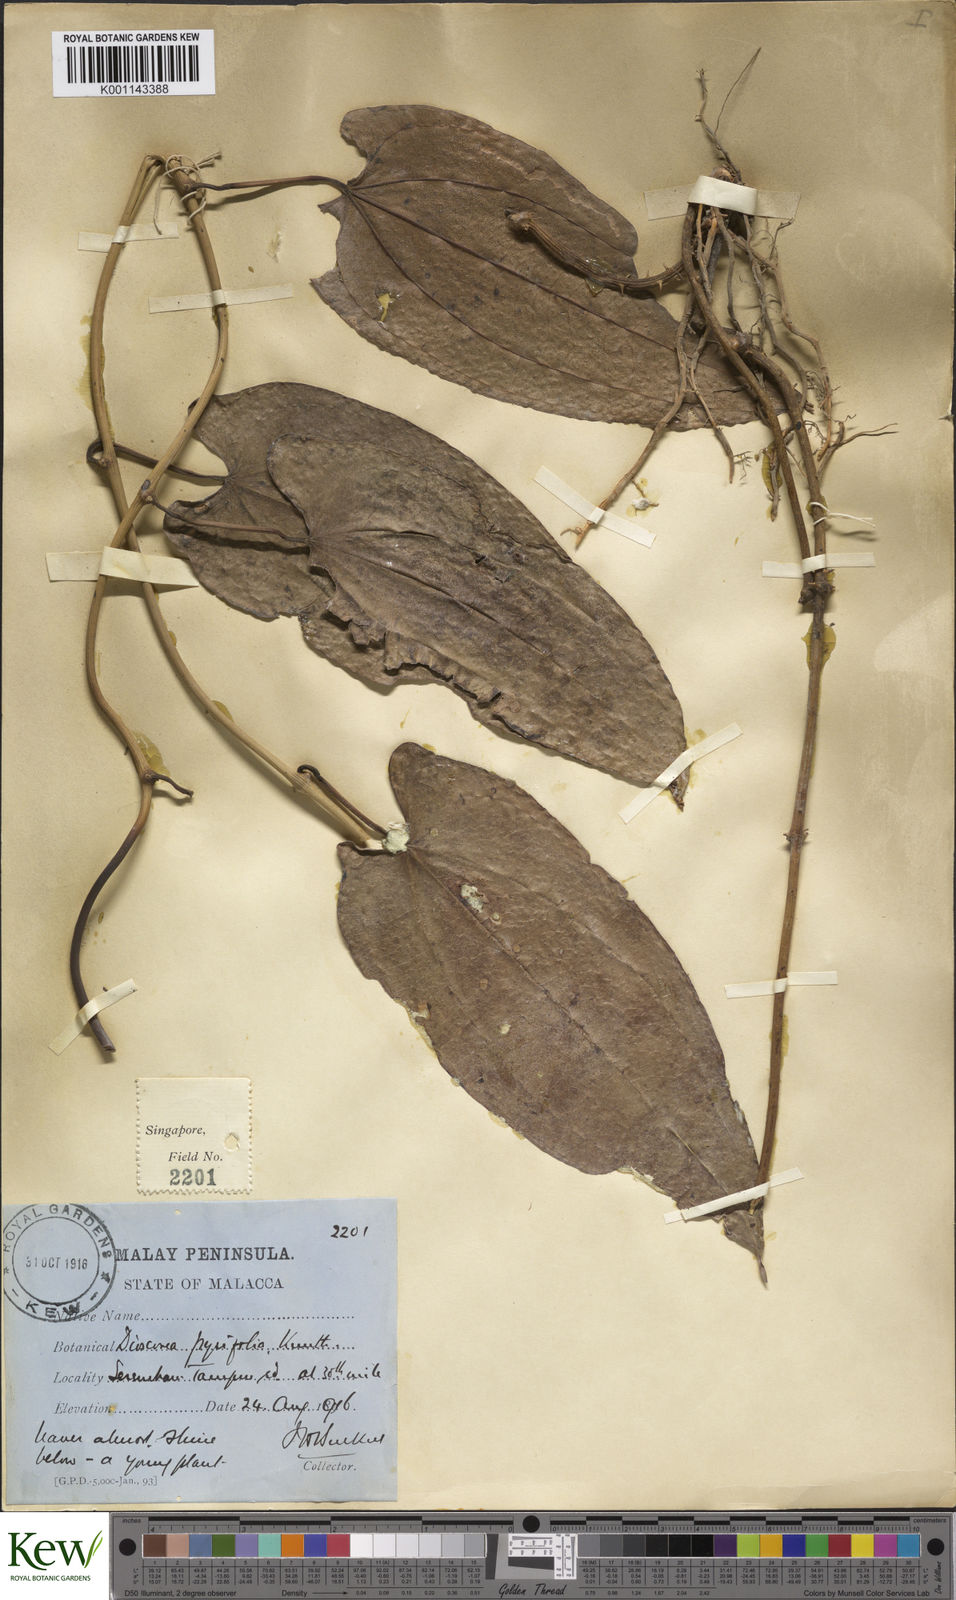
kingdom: Plantae
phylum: Tracheophyta
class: Liliopsida
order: Dioscoreales
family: Dioscoreaceae
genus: Dioscorea
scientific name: Dioscorea pyrifolia
